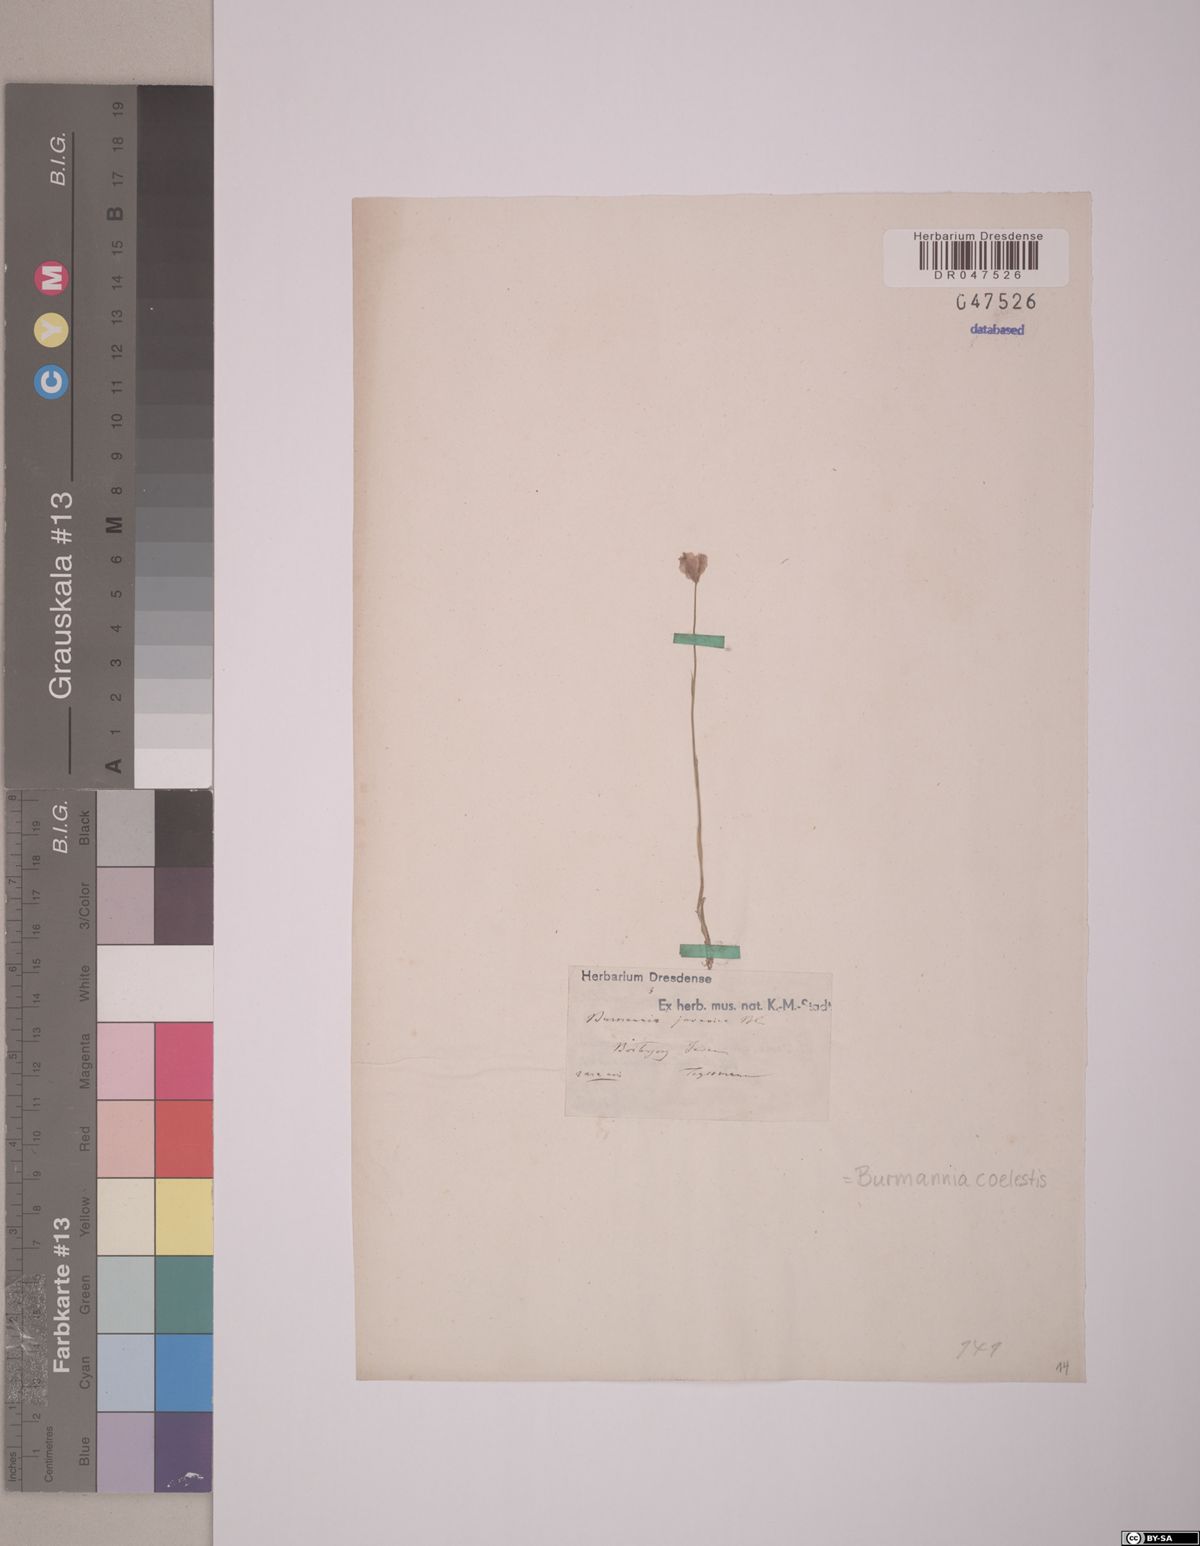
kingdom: Plantae
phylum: Tracheophyta
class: Liliopsida
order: Dioscoreales
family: Burmanniaceae
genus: Burmannia
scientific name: Burmannia coelestis
